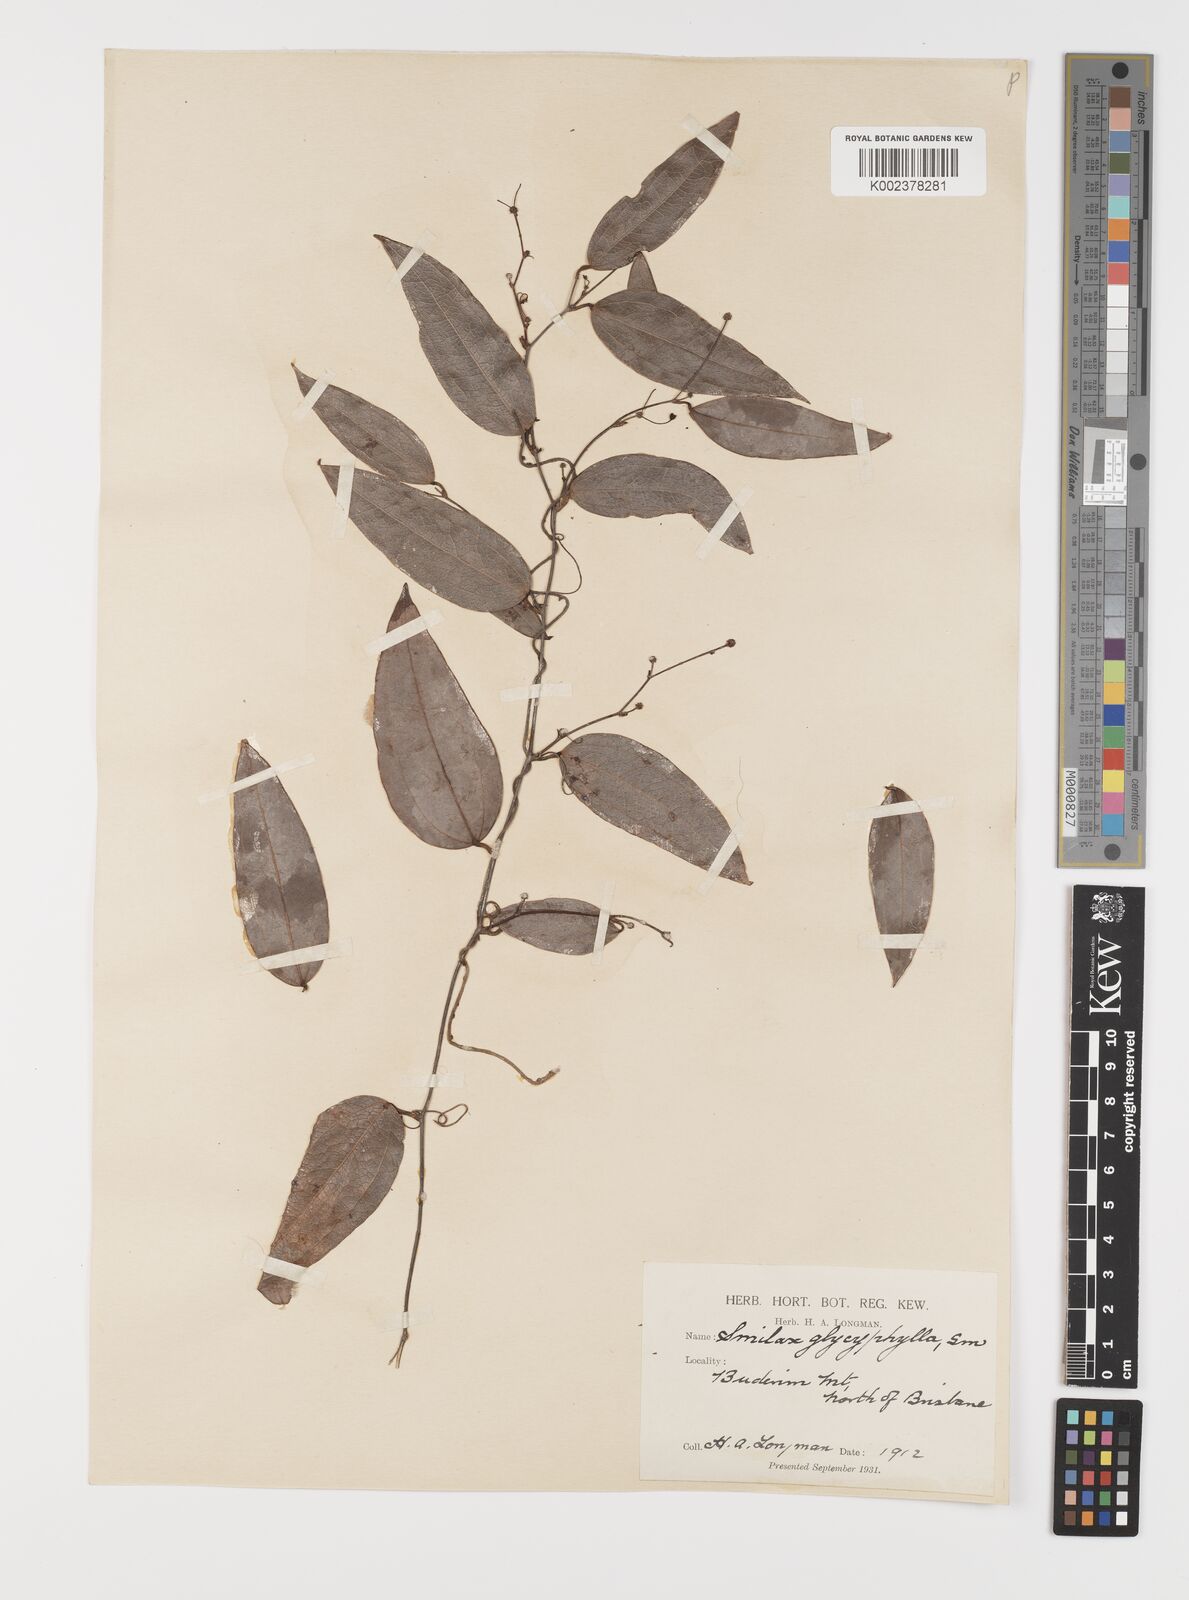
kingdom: Plantae
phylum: Tracheophyta
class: Liliopsida
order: Liliales
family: Smilacaceae
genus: Smilax
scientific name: Smilax leucophylla
